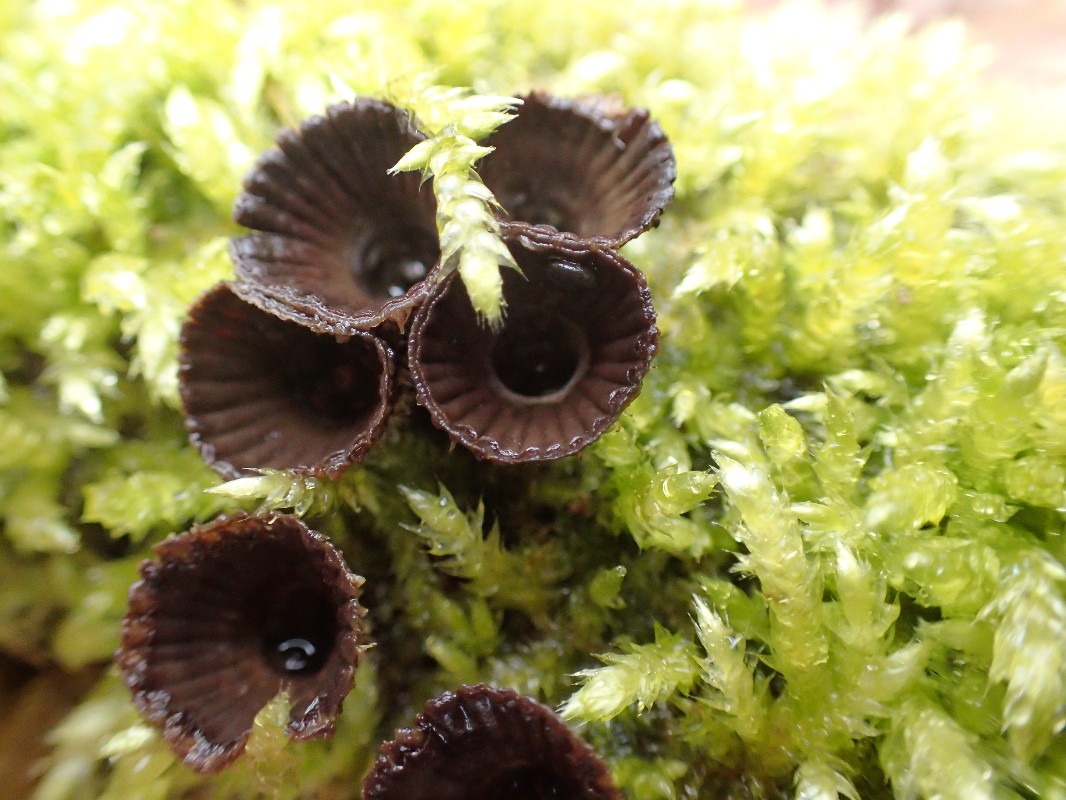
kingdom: Fungi
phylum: Basidiomycota
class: Agaricomycetes
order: Agaricales
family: Agaricaceae
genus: Cyathus
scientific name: Cyathus striatus
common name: stribet redesvamp
